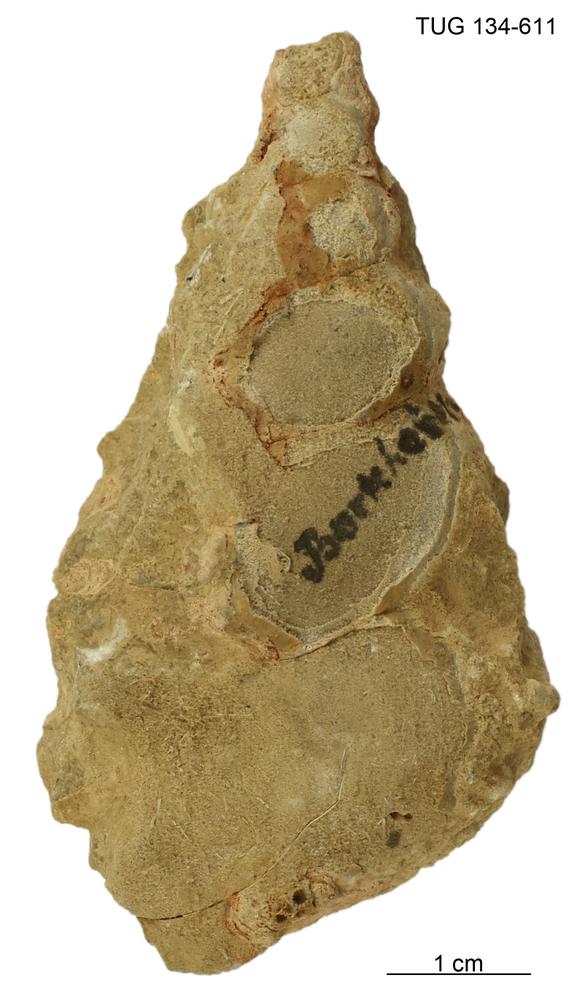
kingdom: Animalia
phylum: Mollusca
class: Gastropoda
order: Pleurotomariida
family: Murchisoniidae
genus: Murchisonia
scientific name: Murchisonia
